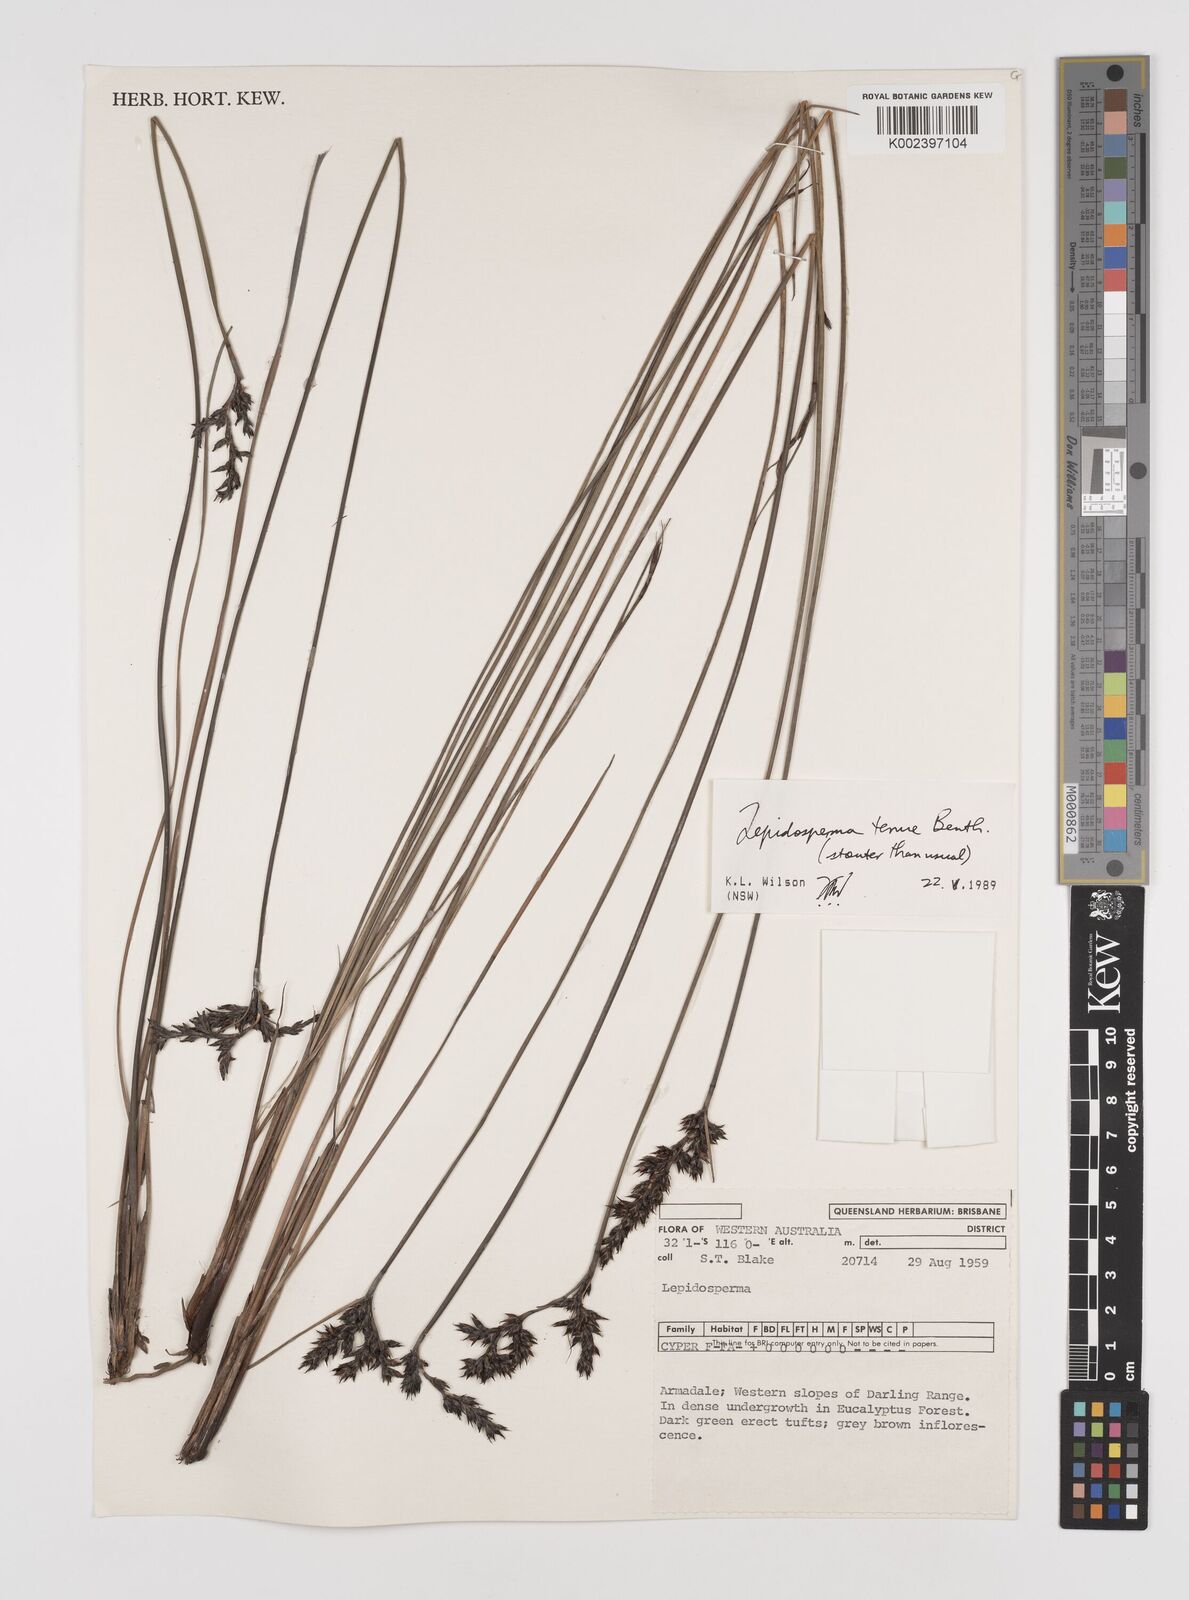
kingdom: Plantae
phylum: Tracheophyta
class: Liliopsida
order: Poales
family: Cyperaceae
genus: Lepidosperma
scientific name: Lepidosperma tenue
